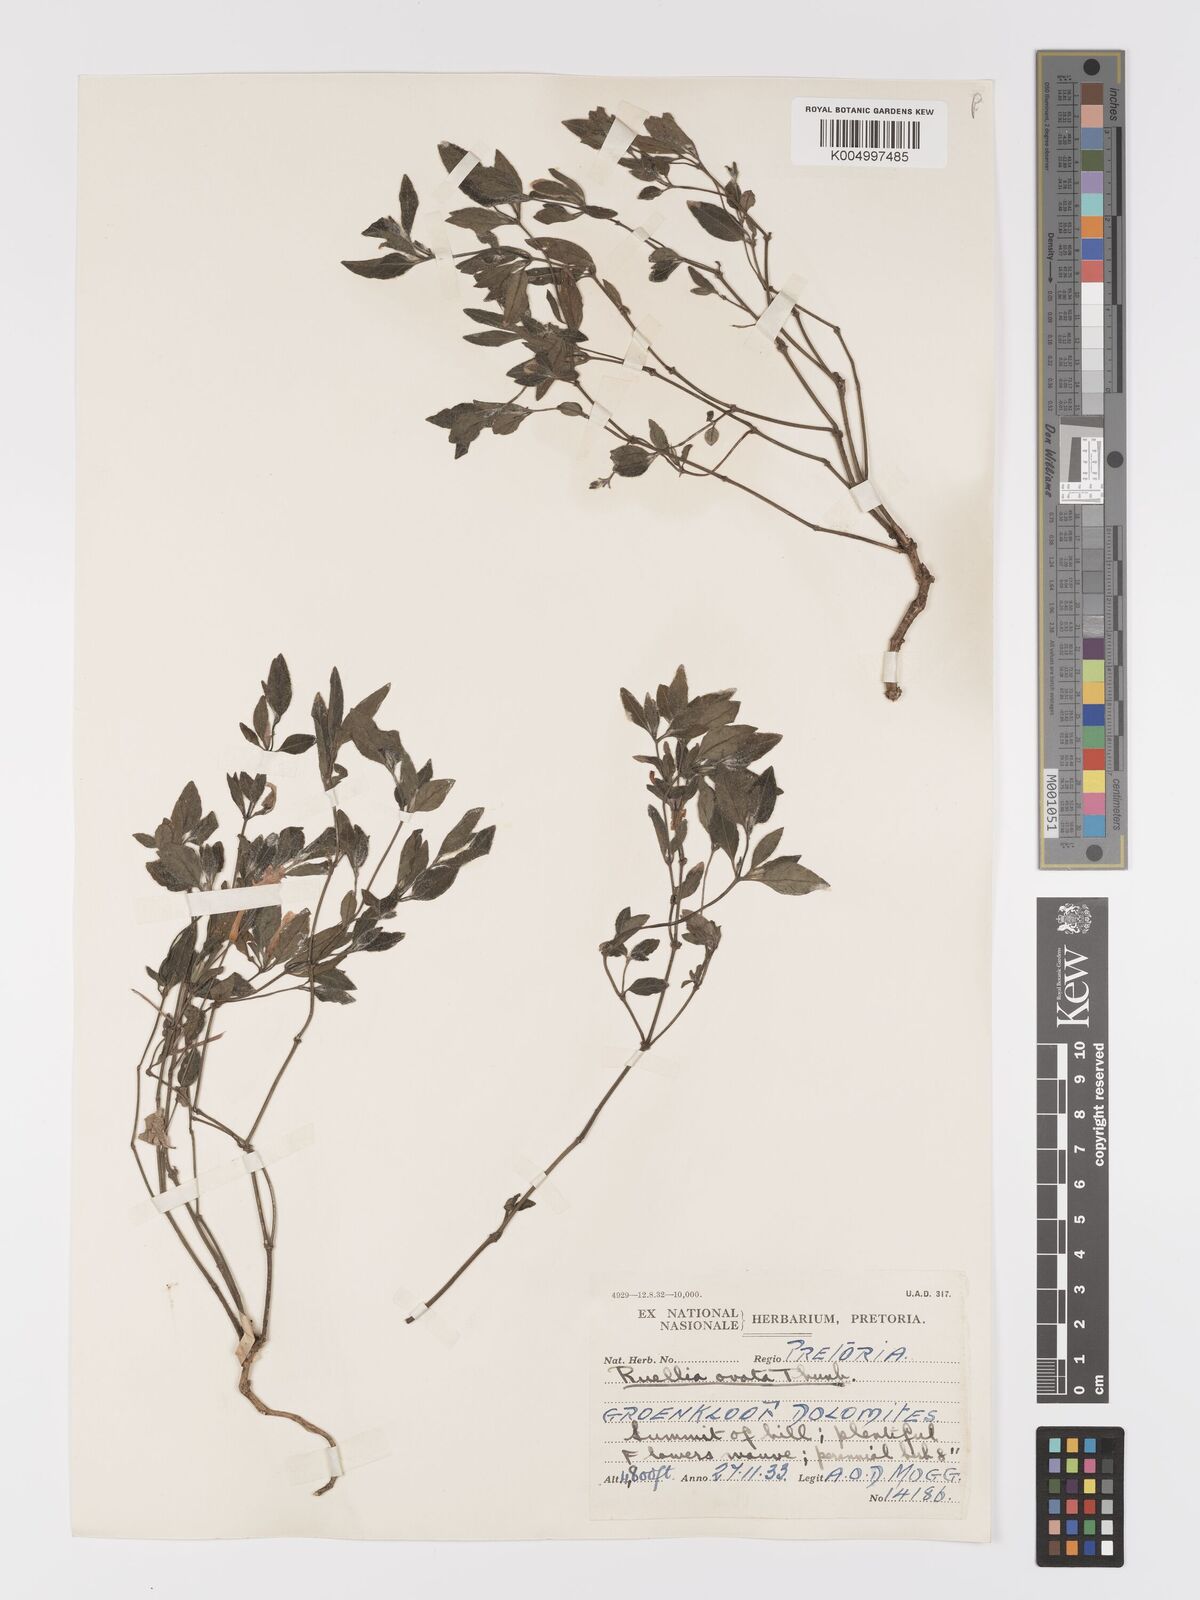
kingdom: Plantae
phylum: Tracheophyta
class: Magnoliopsida
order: Lamiales
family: Acanthaceae
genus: Ruellia
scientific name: Ruellia cordata
